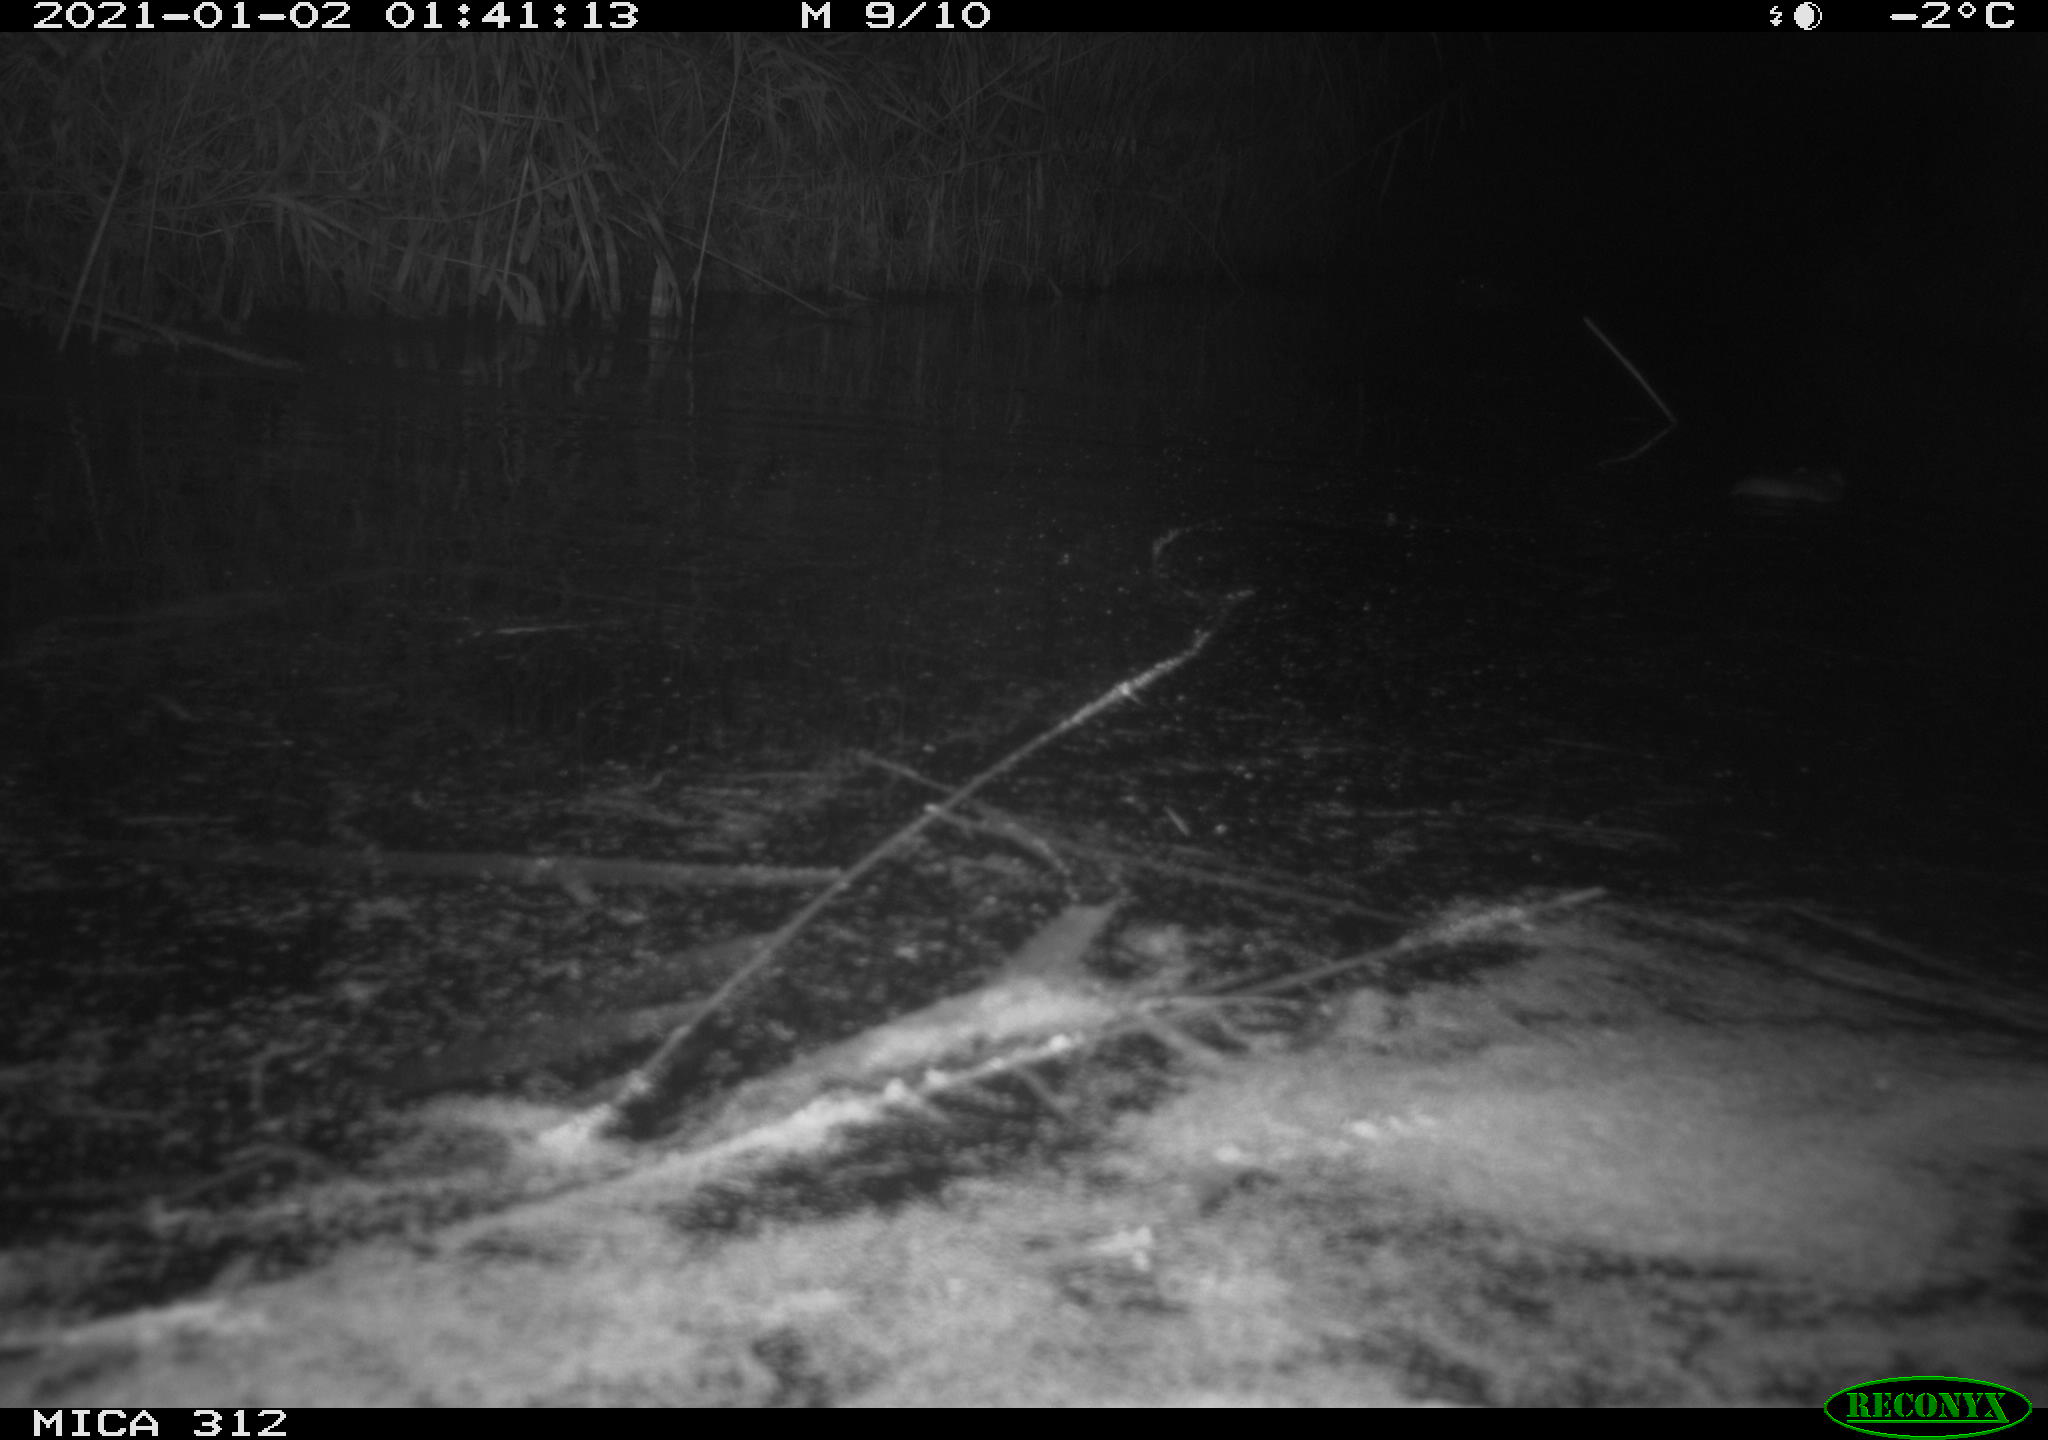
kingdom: Animalia
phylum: Chordata
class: Mammalia
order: Rodentia
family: Muridae
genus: Rattus
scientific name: Rattus norvegicus
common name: Brown rat
